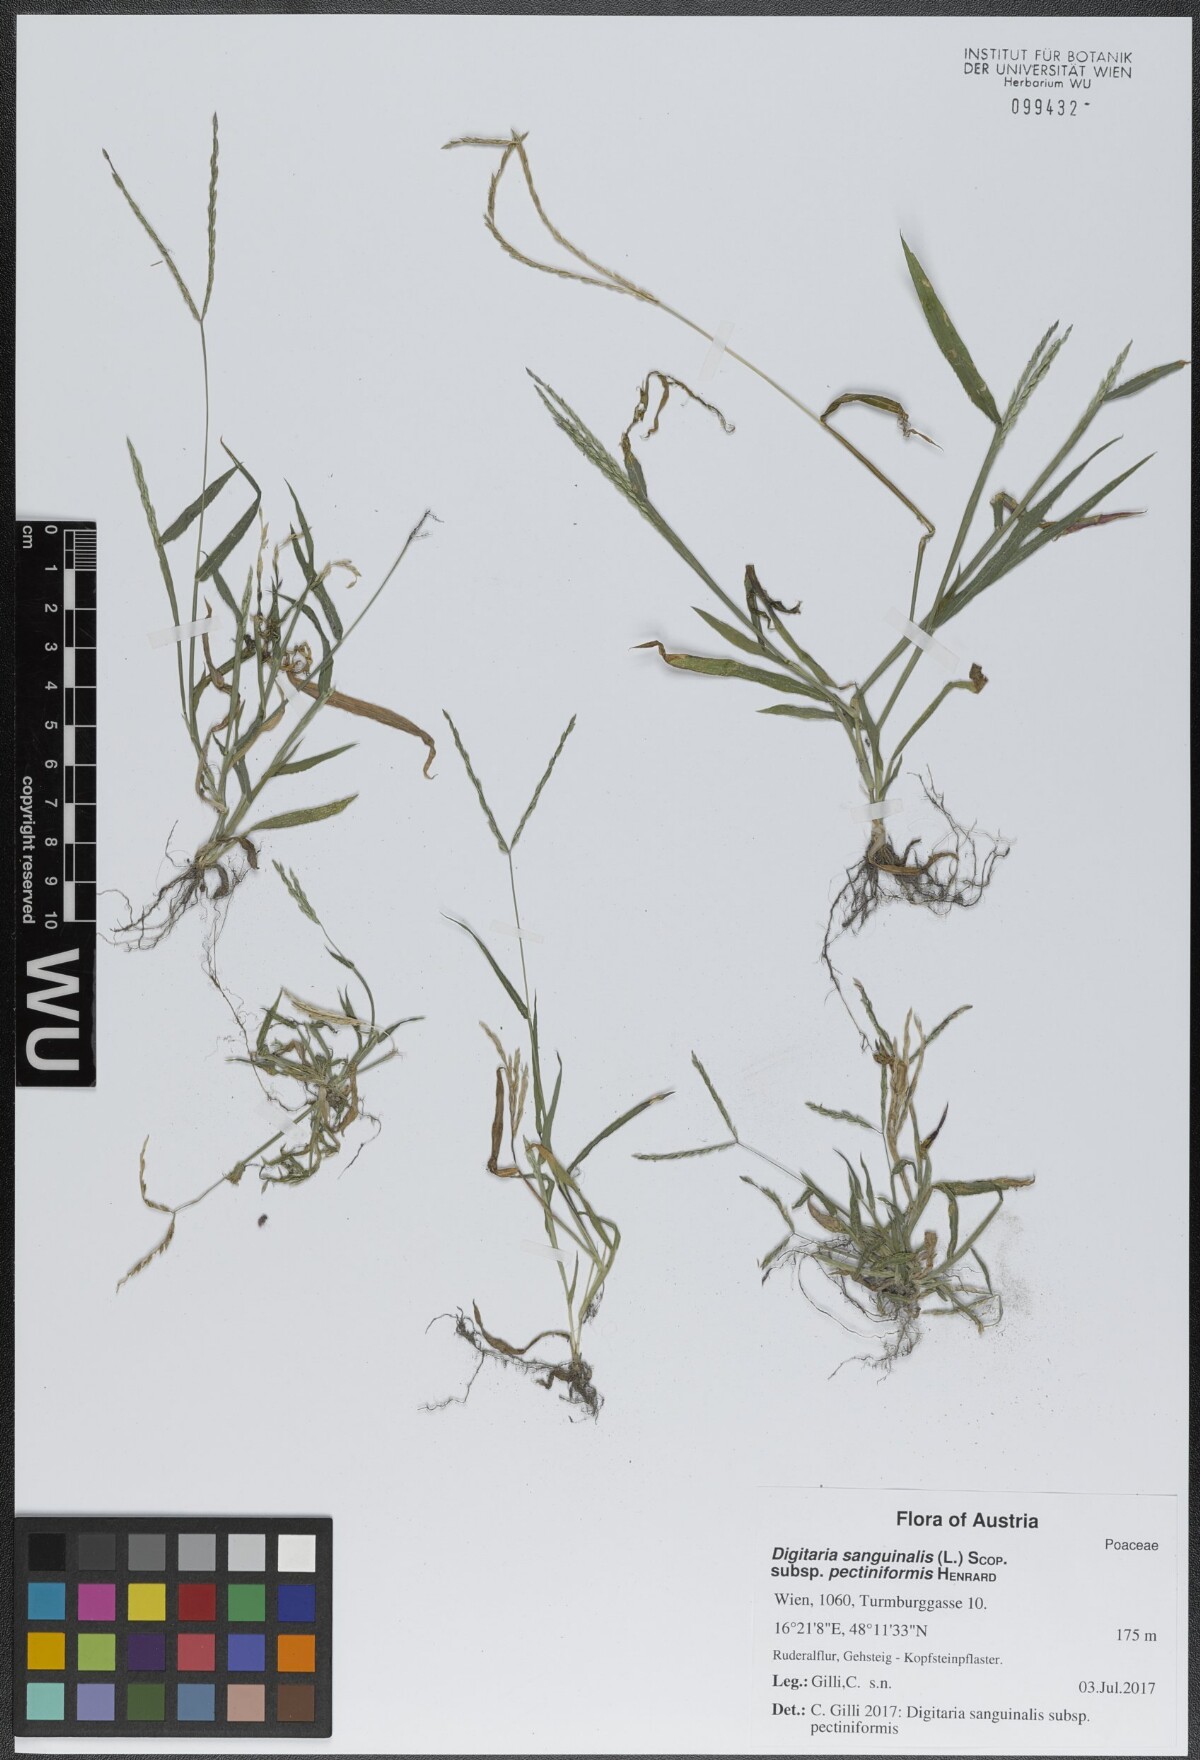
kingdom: Plantae
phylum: Tracheophyta
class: Liliopsida
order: Poales
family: Poaceae
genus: Digitaria
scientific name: Digitaria sanguinalis
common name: Hairy crabgrass
